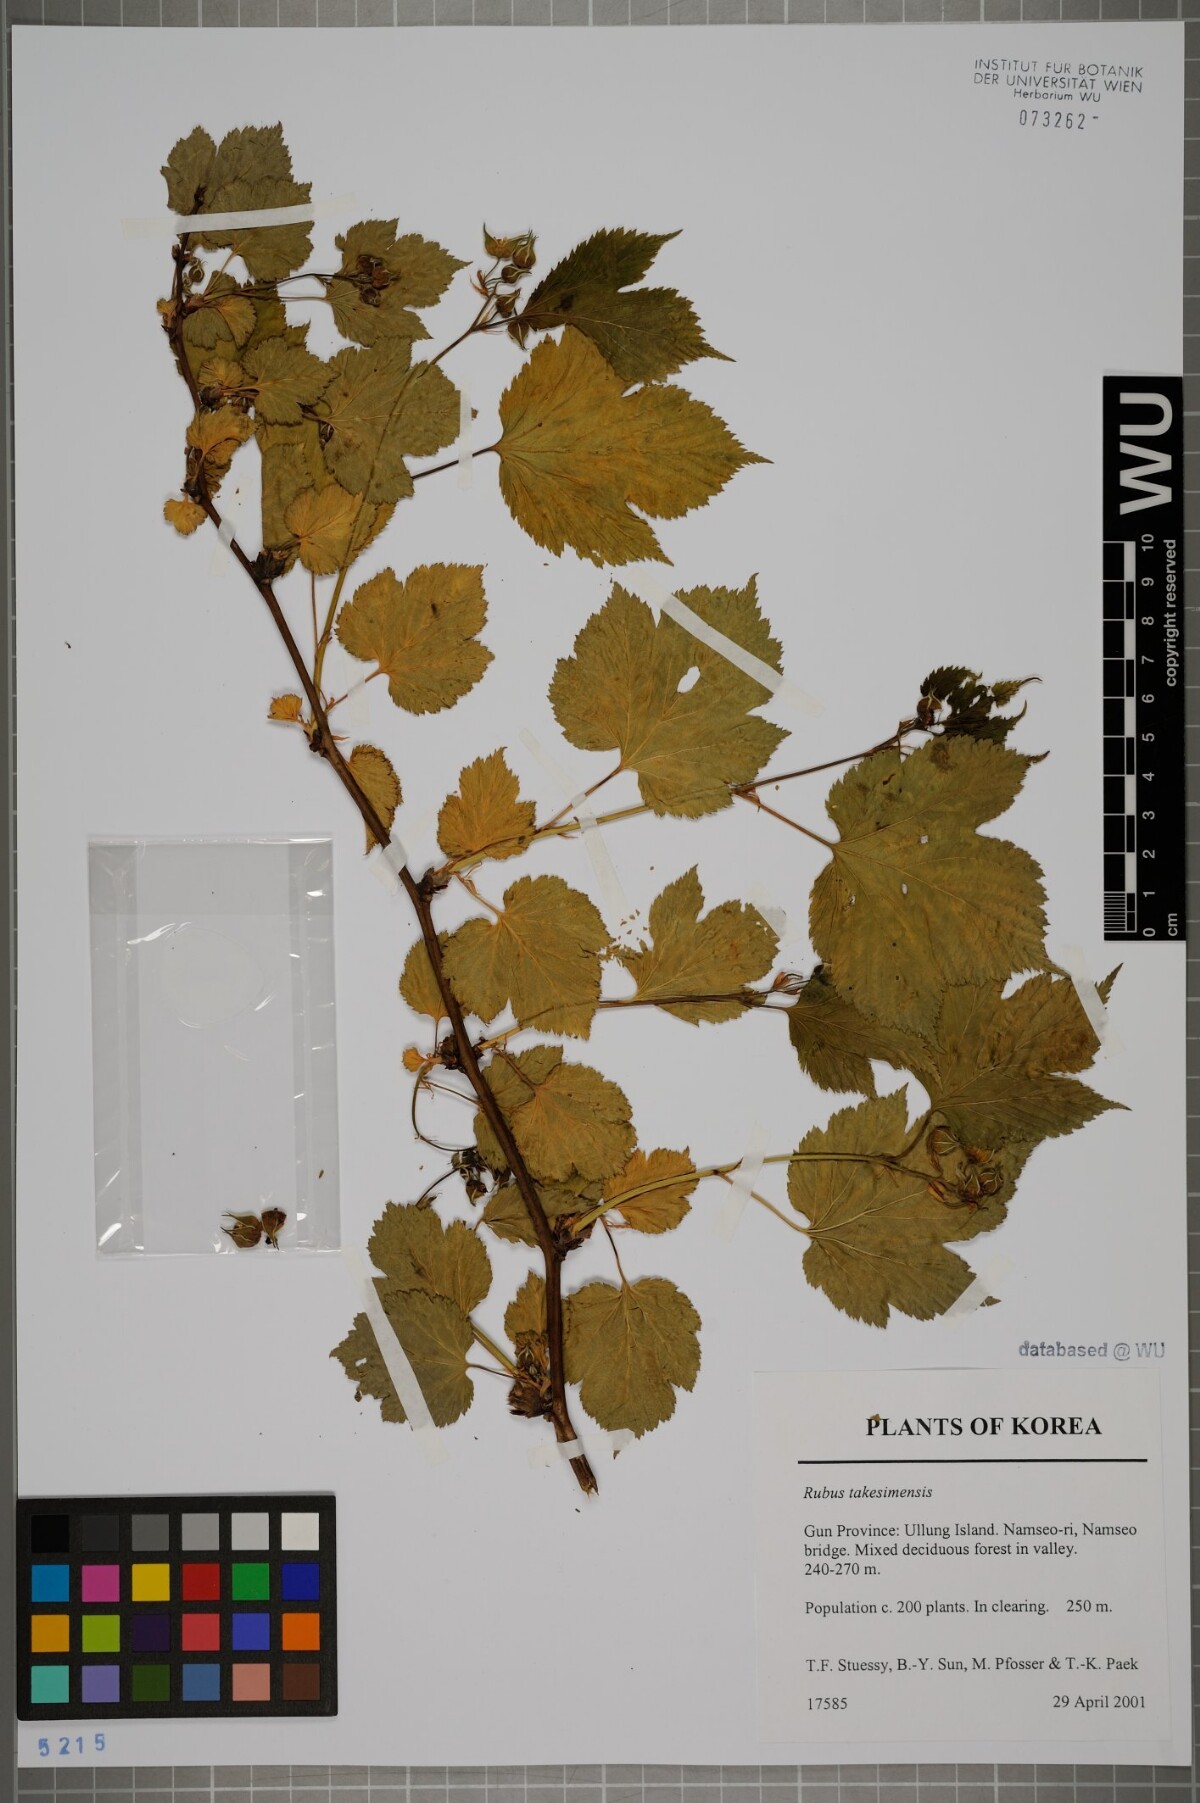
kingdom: Plantae
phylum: Tracheophyta
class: Magnoliopsida
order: Rosales
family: Rosaceae
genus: Rubus
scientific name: Rubus crataegifolius
